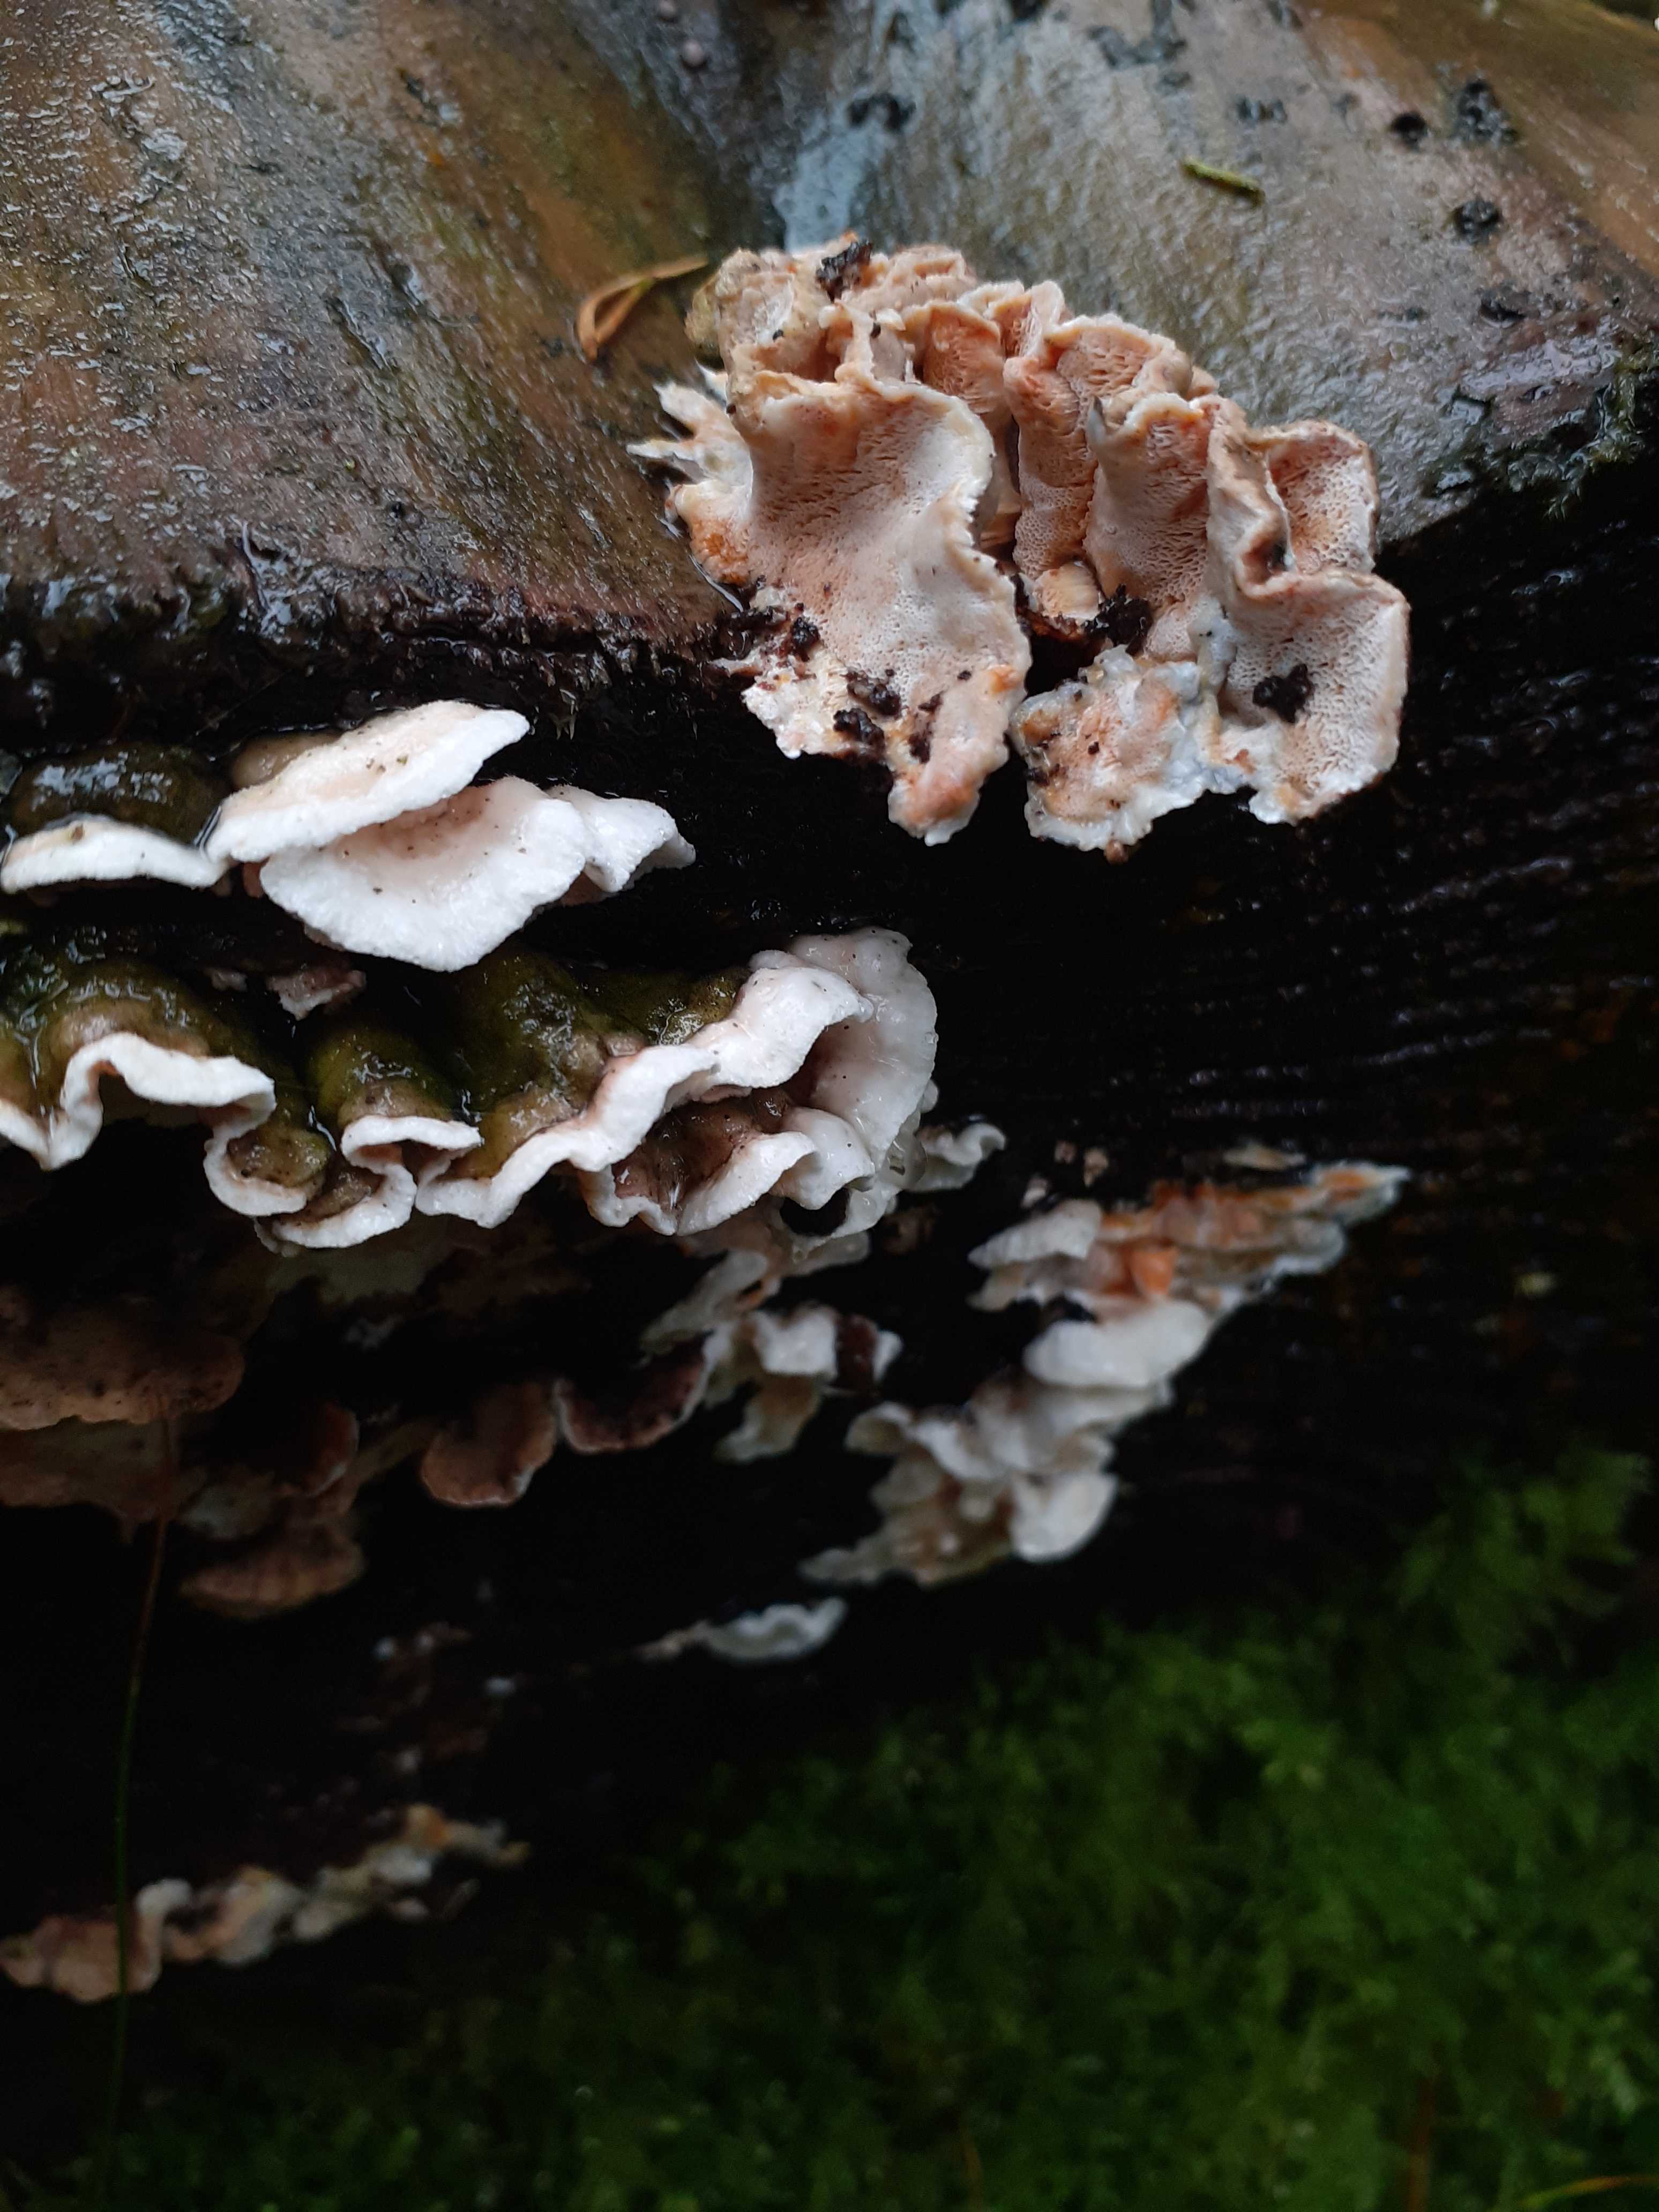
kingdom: Fungi
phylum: Basidiomycota
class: Agaricomycetes
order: Polyporales
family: Incrustoporiaceae
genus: Skeletocutis
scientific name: Skeletocutis amorpha
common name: orange krystalporesvamp
